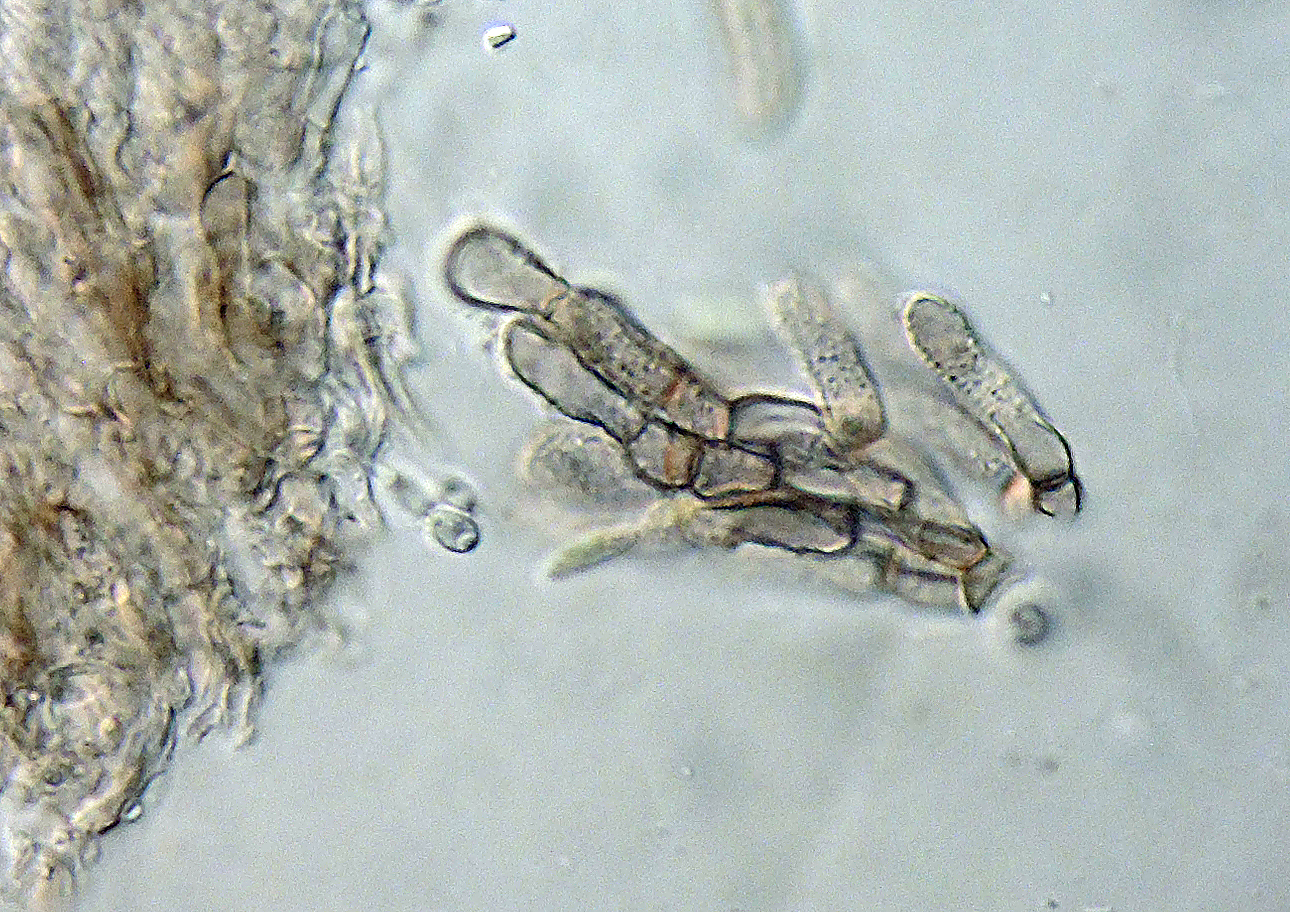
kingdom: Fungi
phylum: Ascomycota
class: Leotiomycetes
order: Helotiales
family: Hyphodiscaceae
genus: Hyphodiscus
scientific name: Hyphodiscus
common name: sirskive
